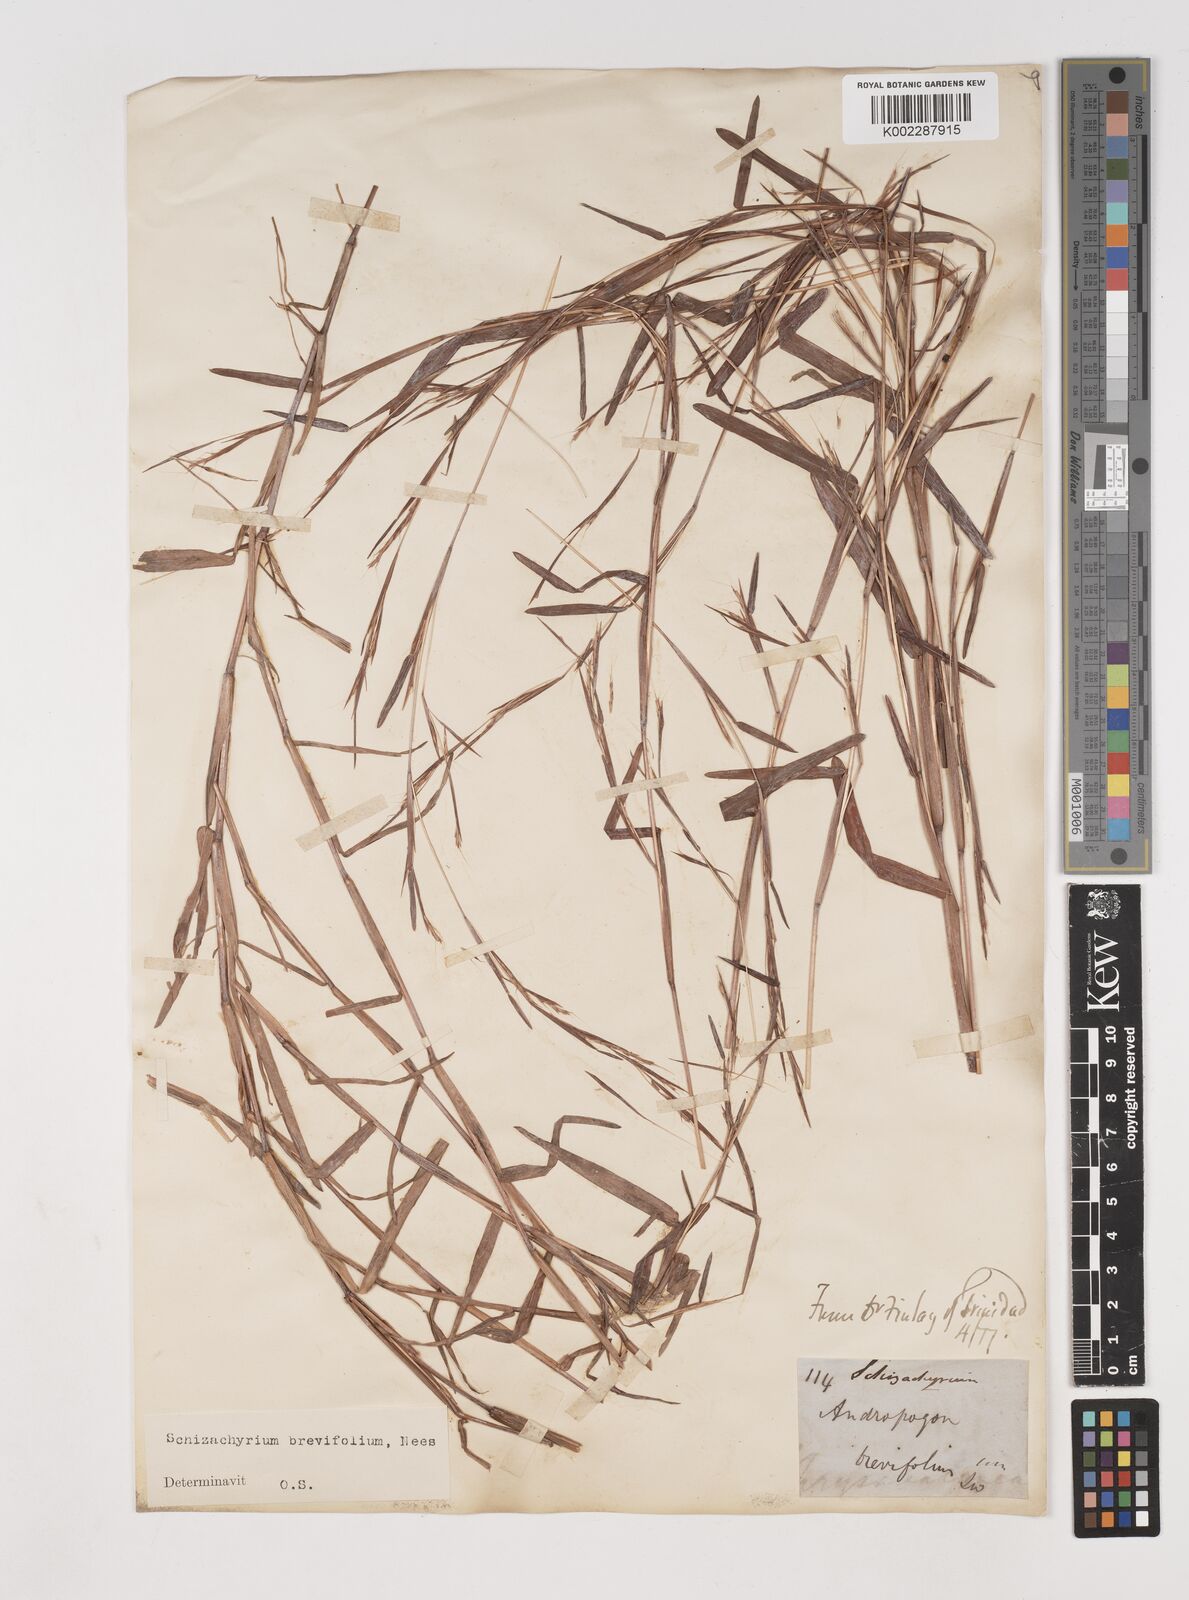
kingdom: Plantae
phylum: Tracheophyta
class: Liliopsida
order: Poales
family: Poaceae
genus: Schizachyrium
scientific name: Schizachyrium brevifolium
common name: Serillo dulce
